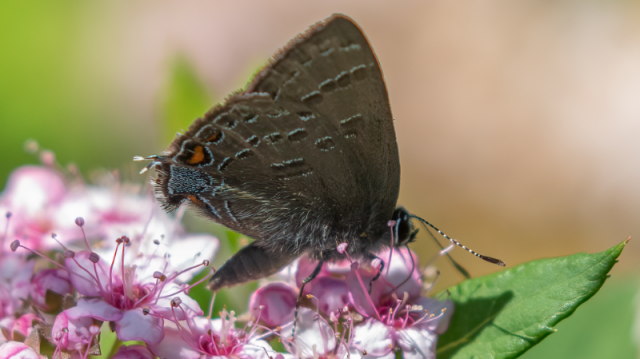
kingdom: Animalia
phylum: Arthropoda
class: Insecta
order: Lepidoptera
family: Lycaenidae
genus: Satyrium
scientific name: Satyrium calanus
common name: Banded Hairstreak
